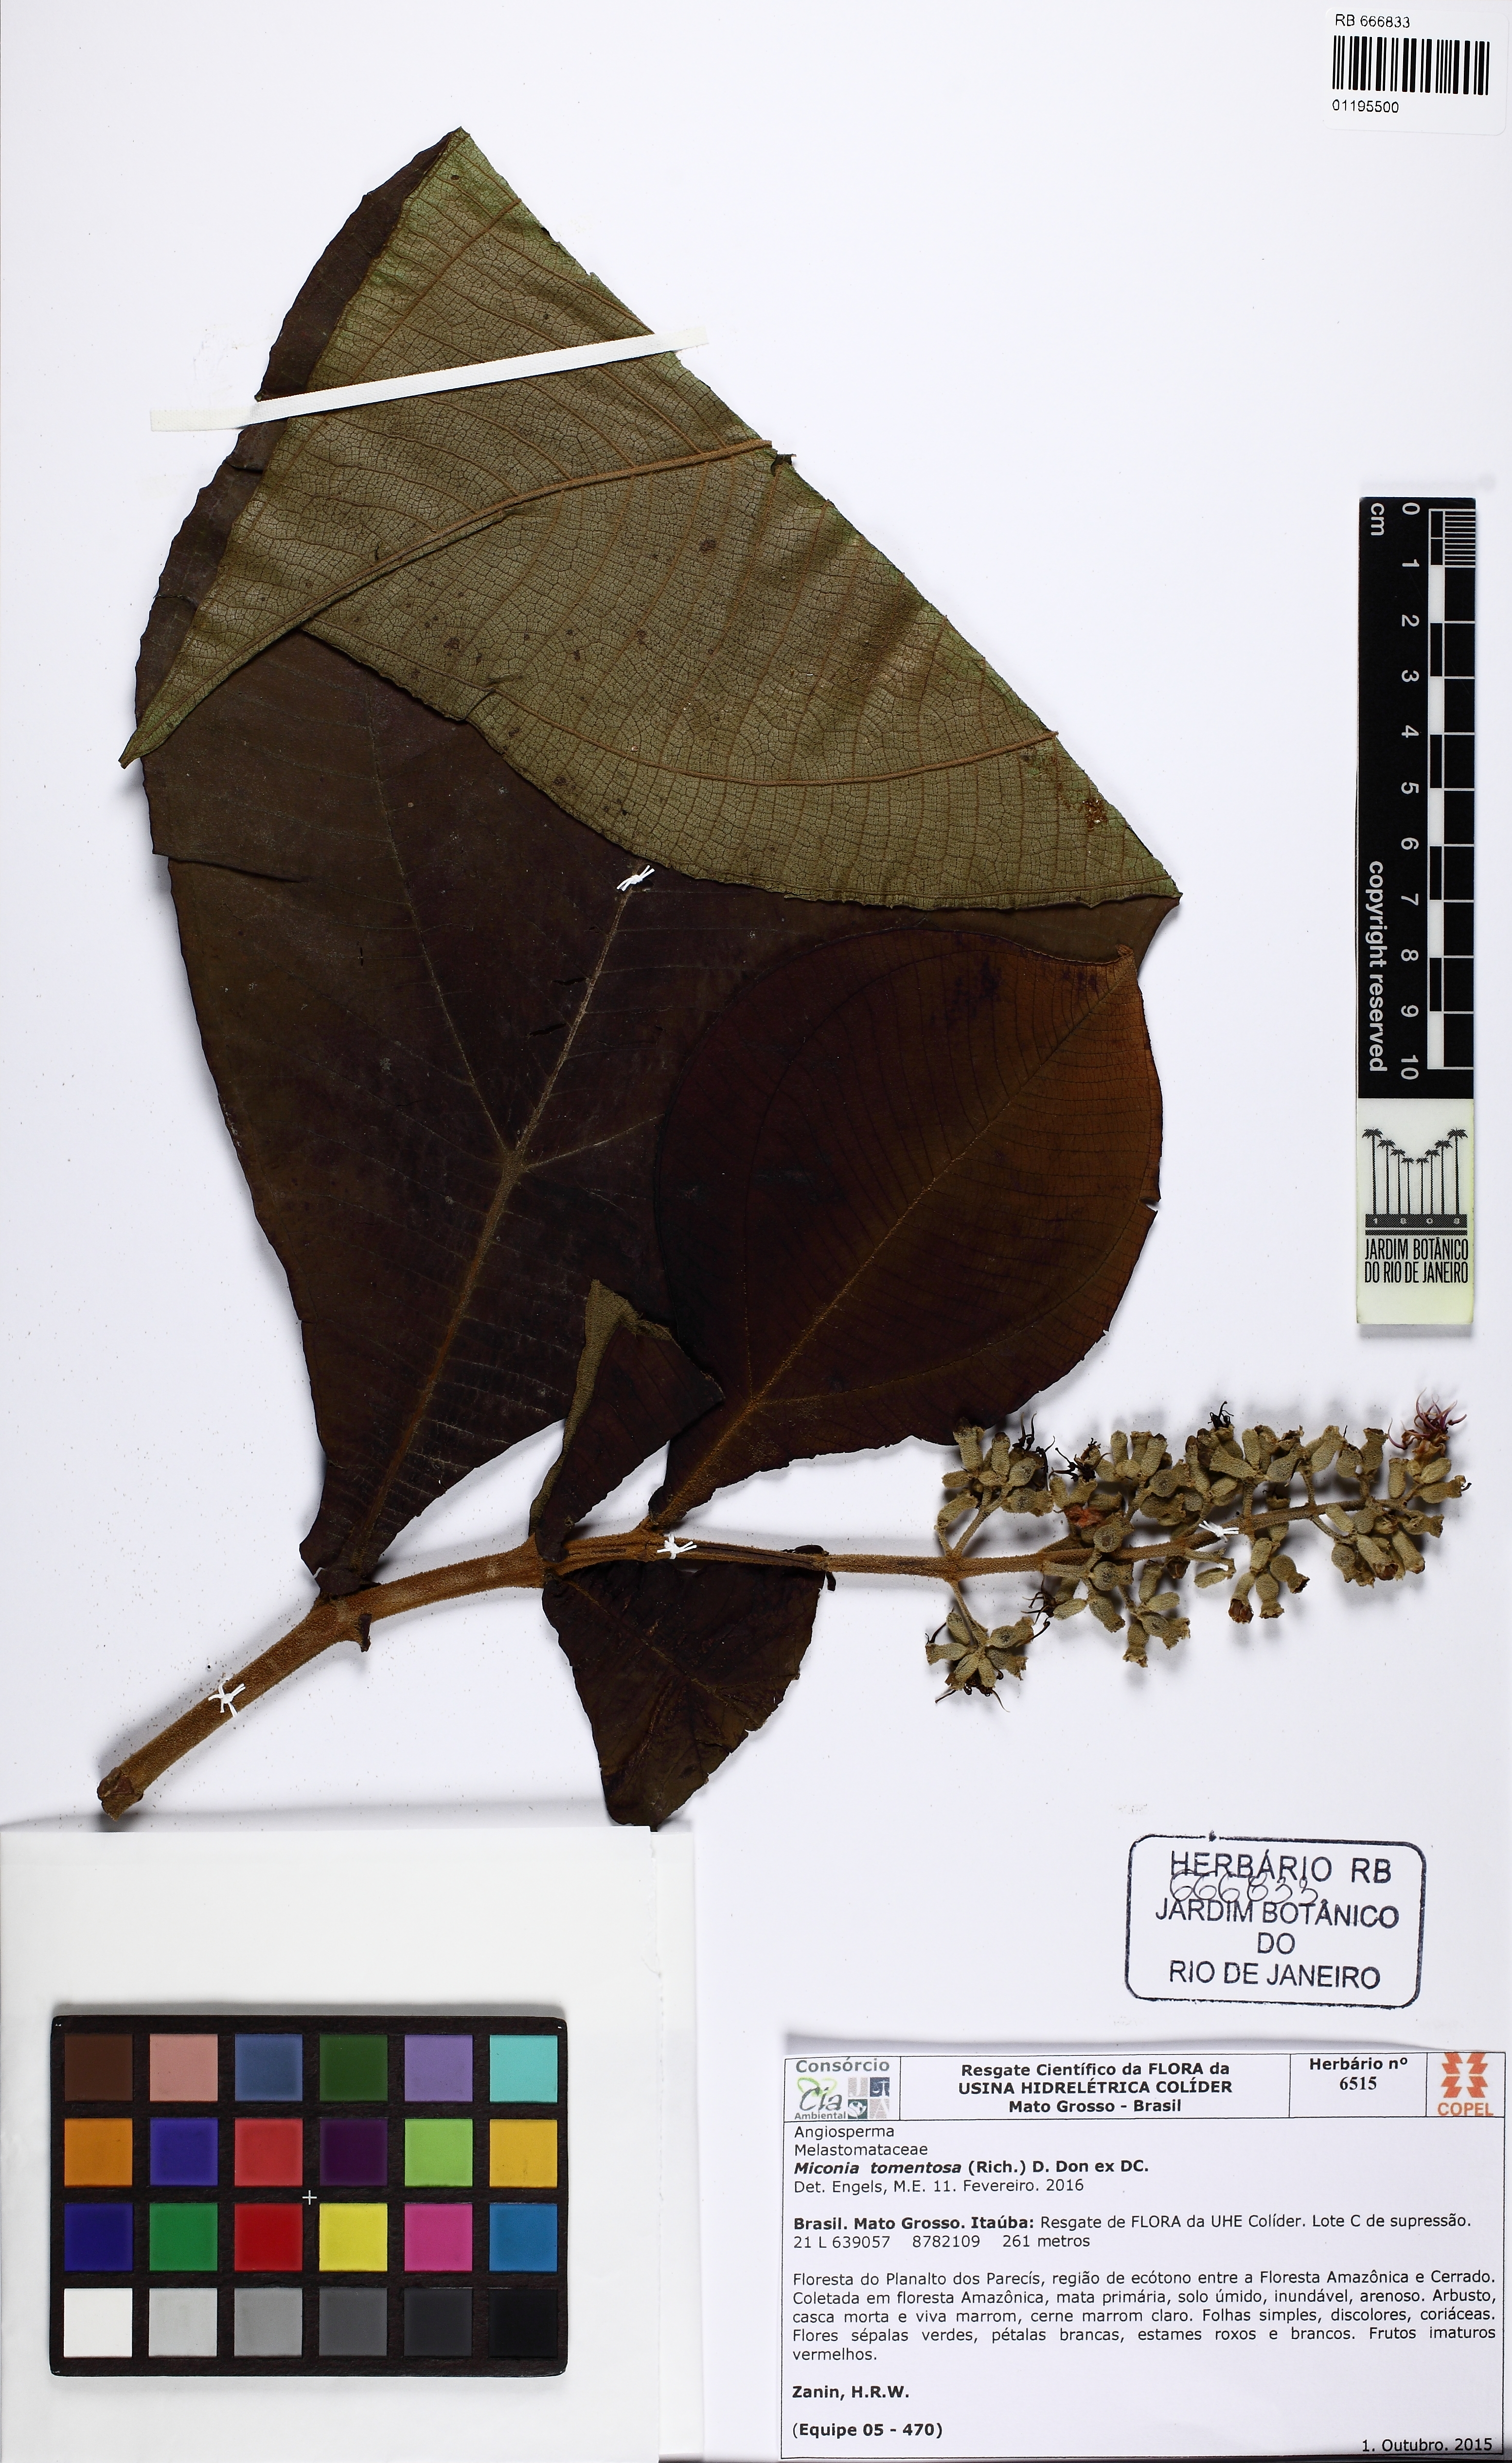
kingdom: Plantae
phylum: Tracheophyta
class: Magnoliopsida
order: Myrtales
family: Melastomataceae
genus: Miconia
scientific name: Miconia tomentosa
